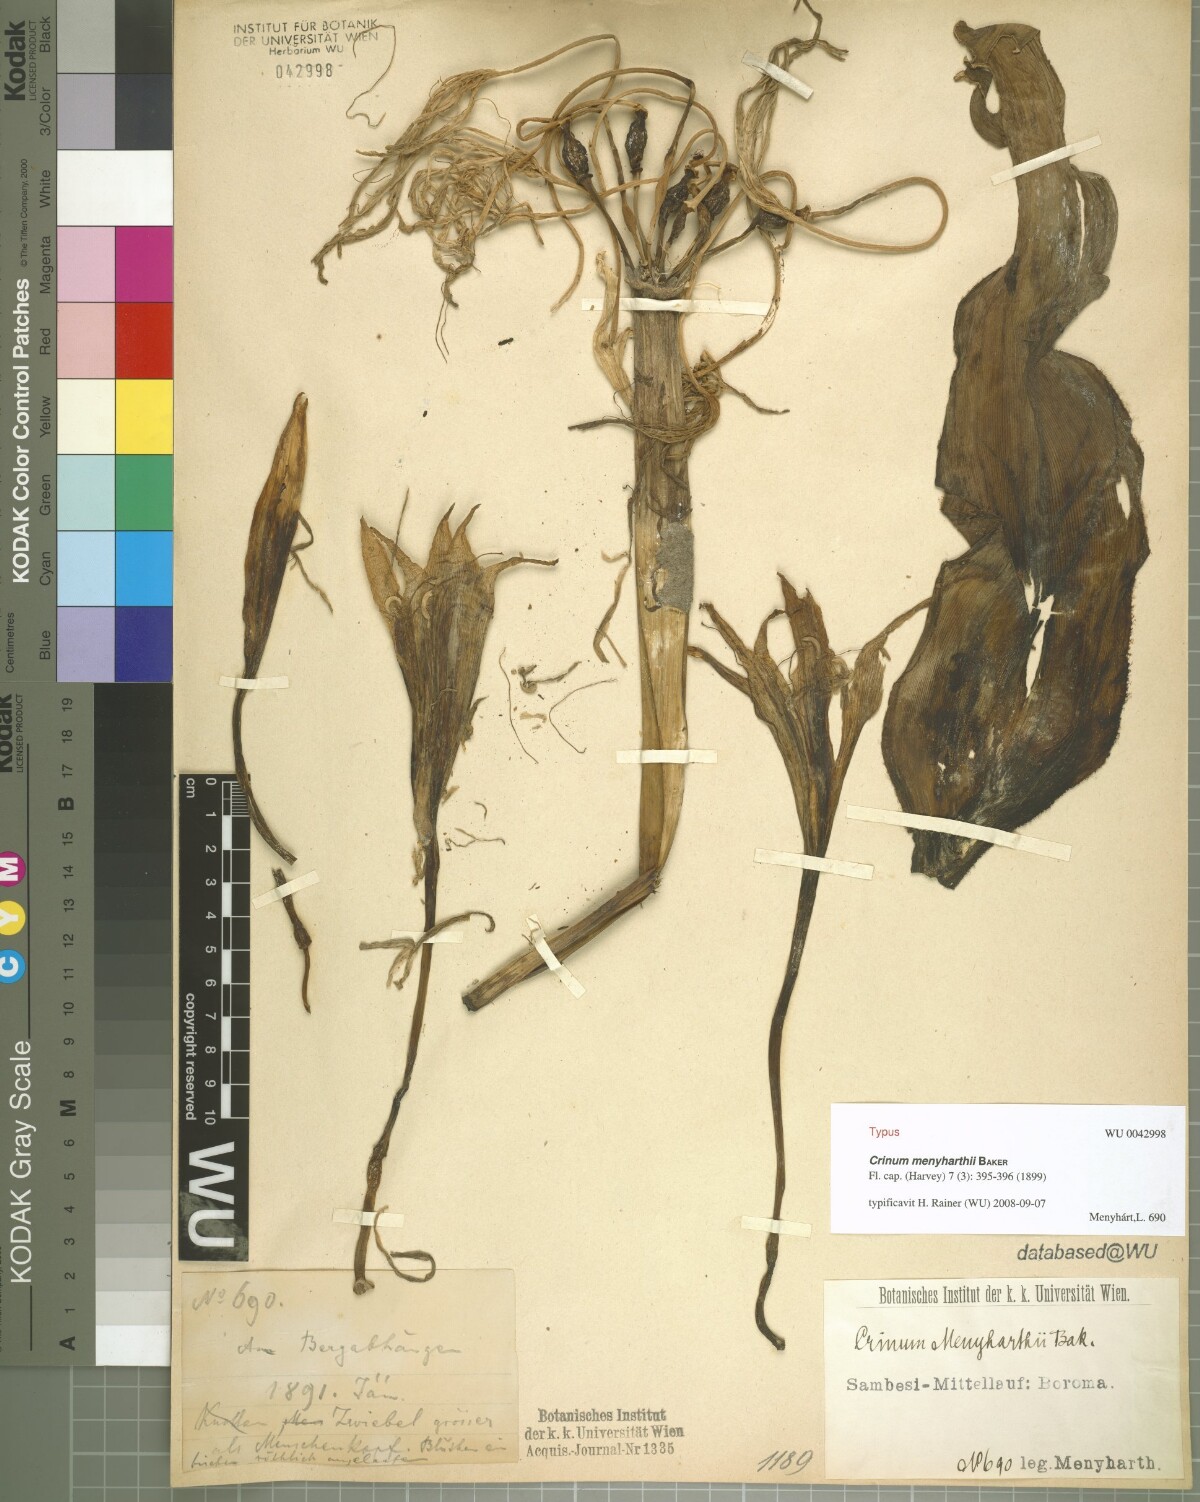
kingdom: Plantae
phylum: Tracheophyta
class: Liliopsida
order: Asparagales
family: Amaryllidaceae
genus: Crinum
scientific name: Crinum subcernuum
